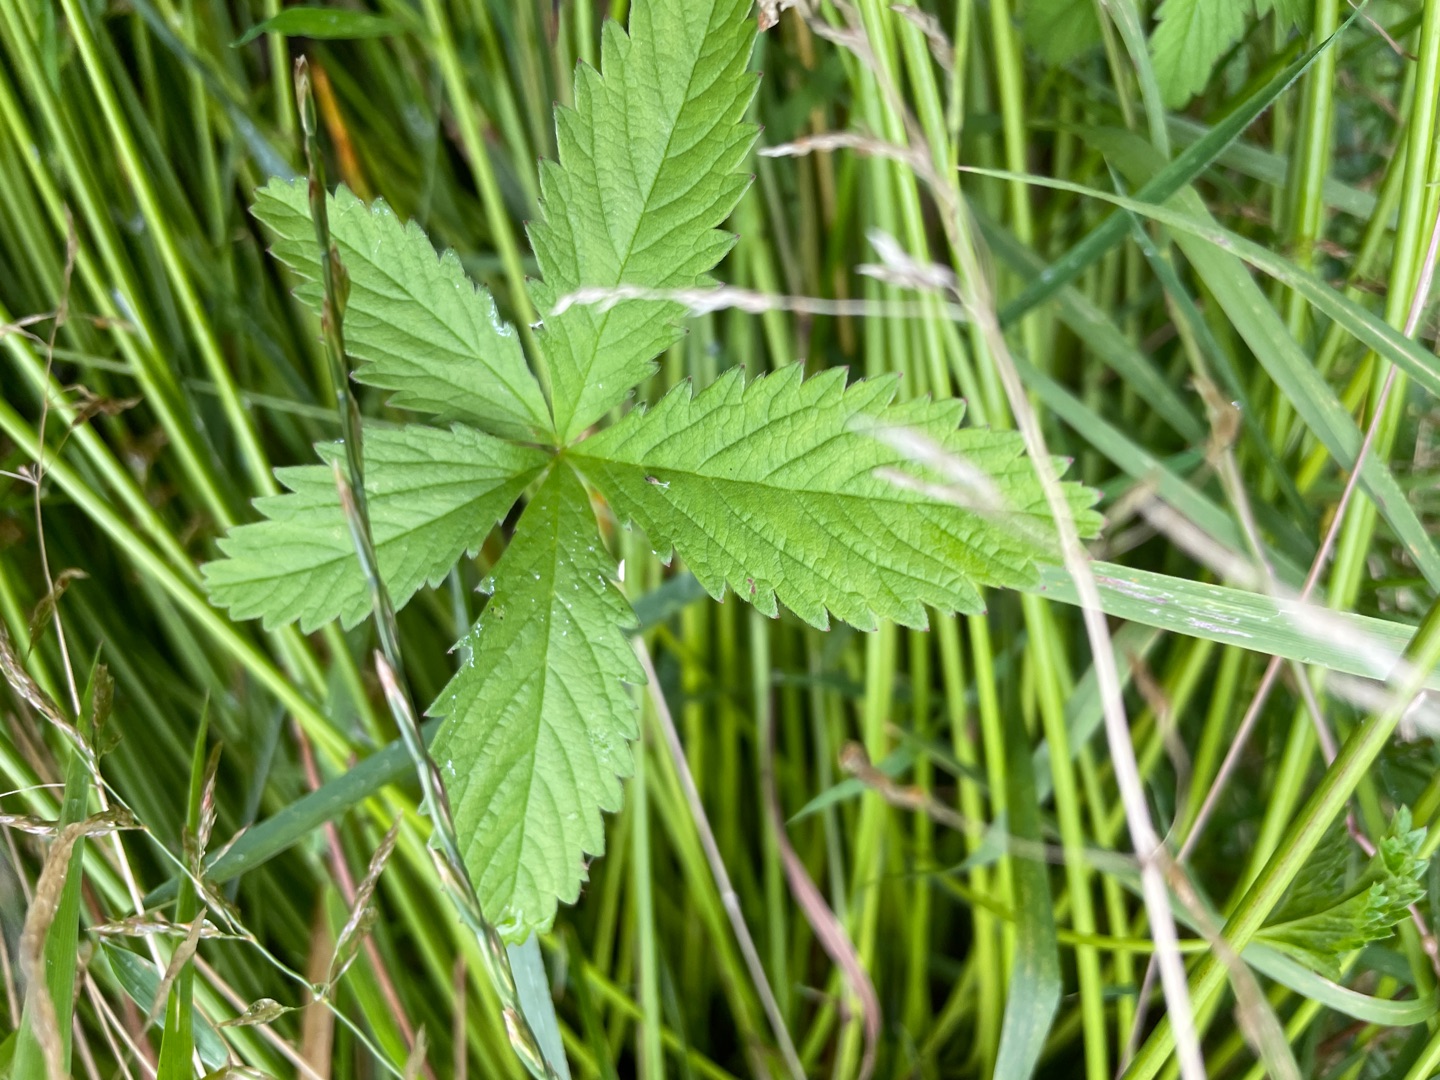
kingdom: Plantae
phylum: Tracheophyta
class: Magnoliopsida
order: Rosales
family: Rosaceae
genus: Potentilla
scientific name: Potentilla reptans
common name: Krybende potentil
